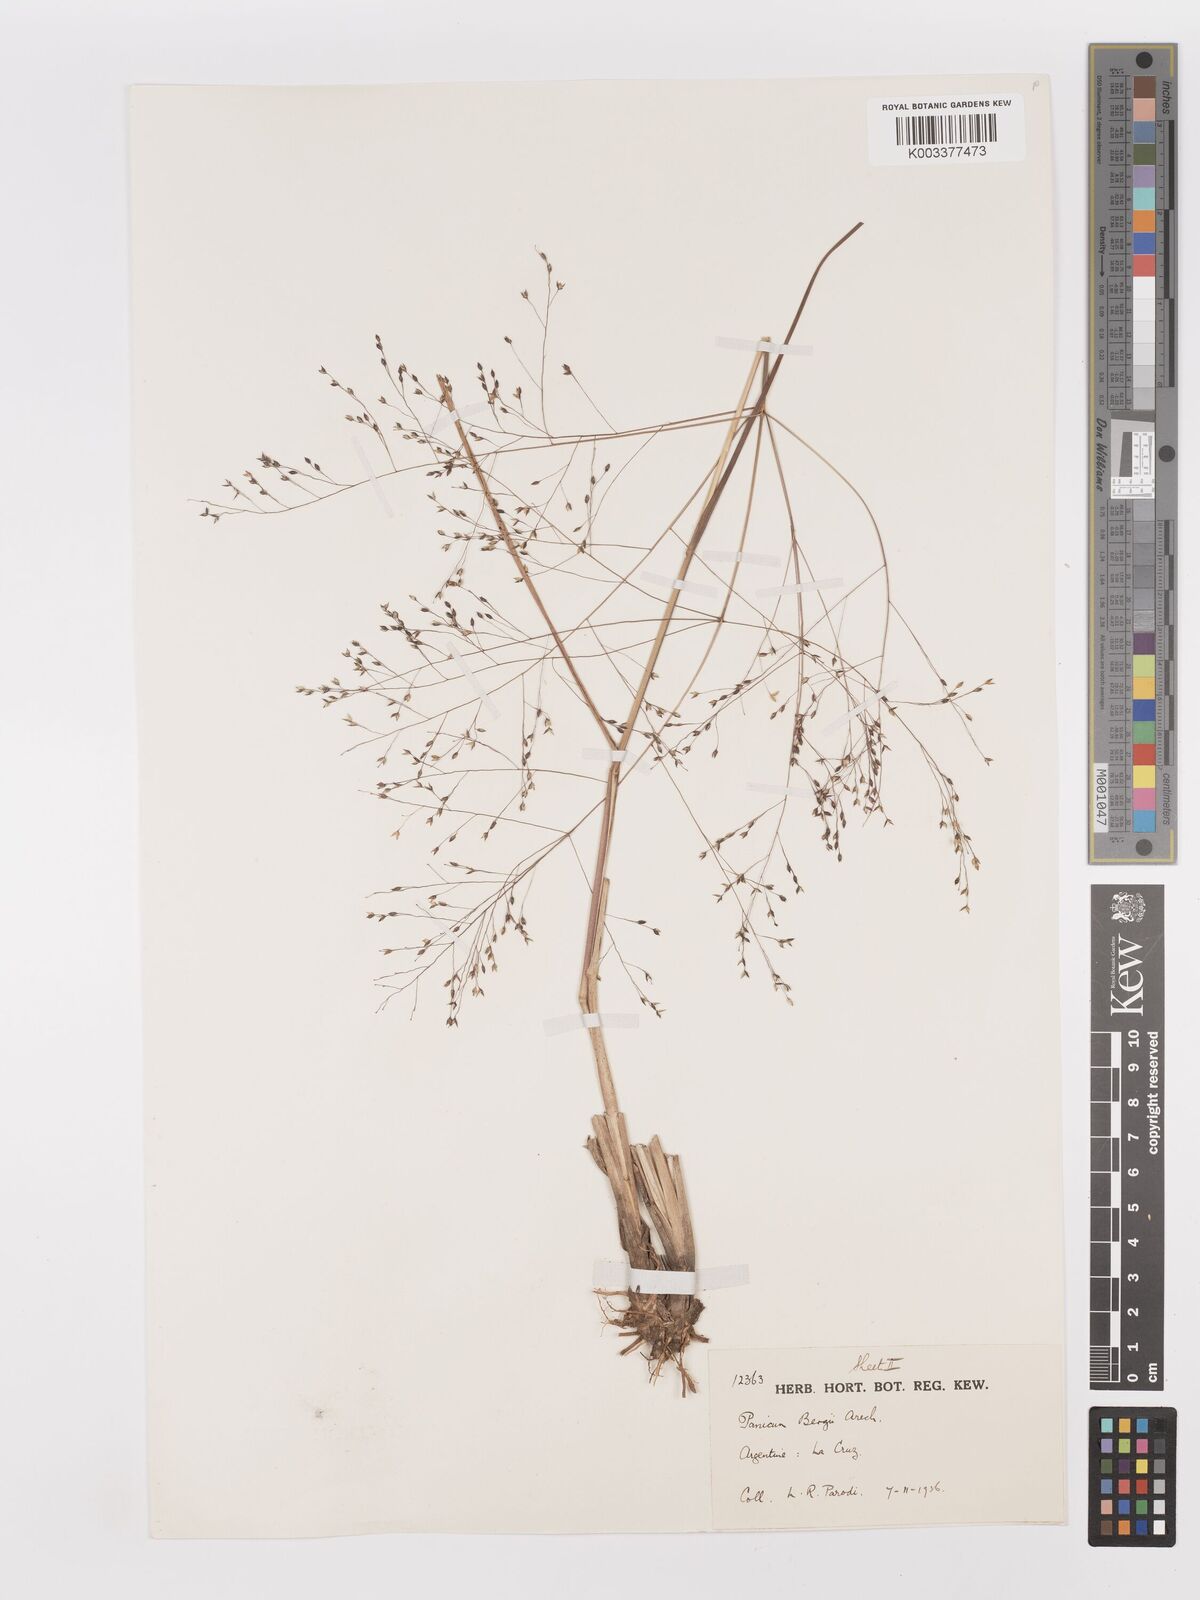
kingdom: Plantae
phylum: Tracheophyta
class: Liliopsida
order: Poales
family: Poaceae
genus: Panicum
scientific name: Panicum bergii
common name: Berg's panicgrass
